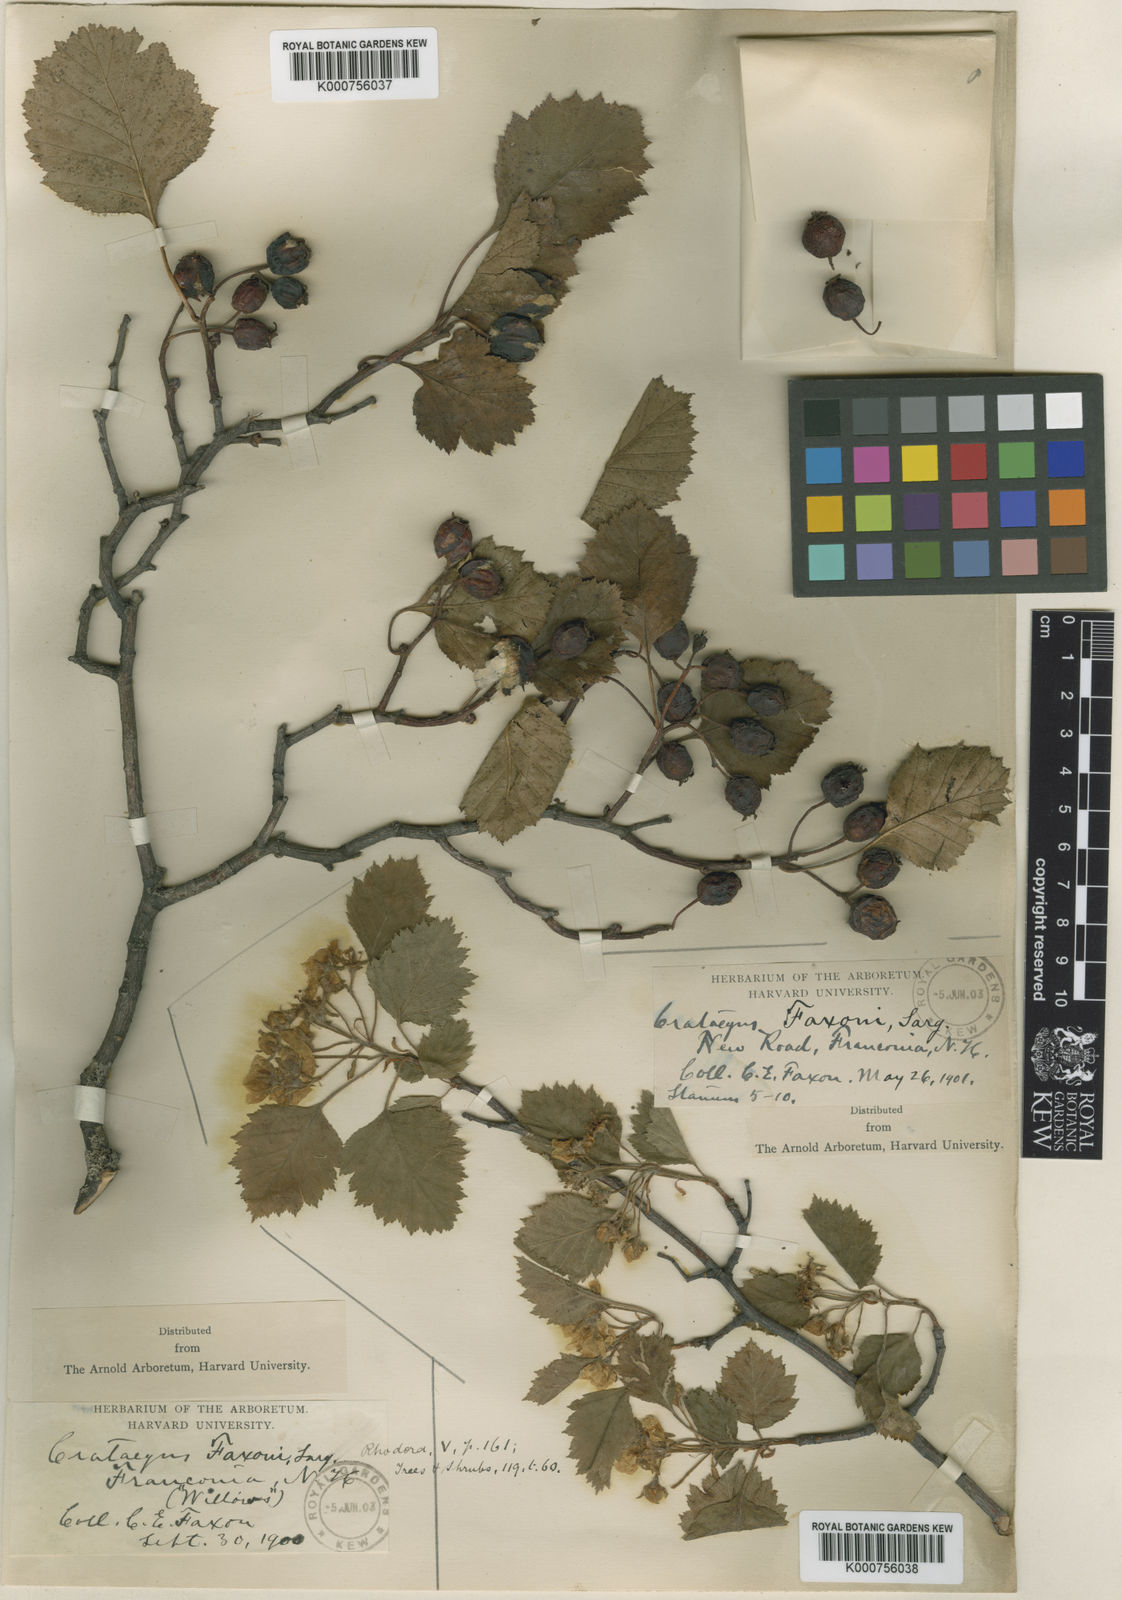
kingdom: Plantae
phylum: Tracheophyta
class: Magnoliopsida
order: Rosales
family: Rosaceae
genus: Crataegus
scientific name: Crataegus chrysocarpa
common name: Fire-berry hawthorn
